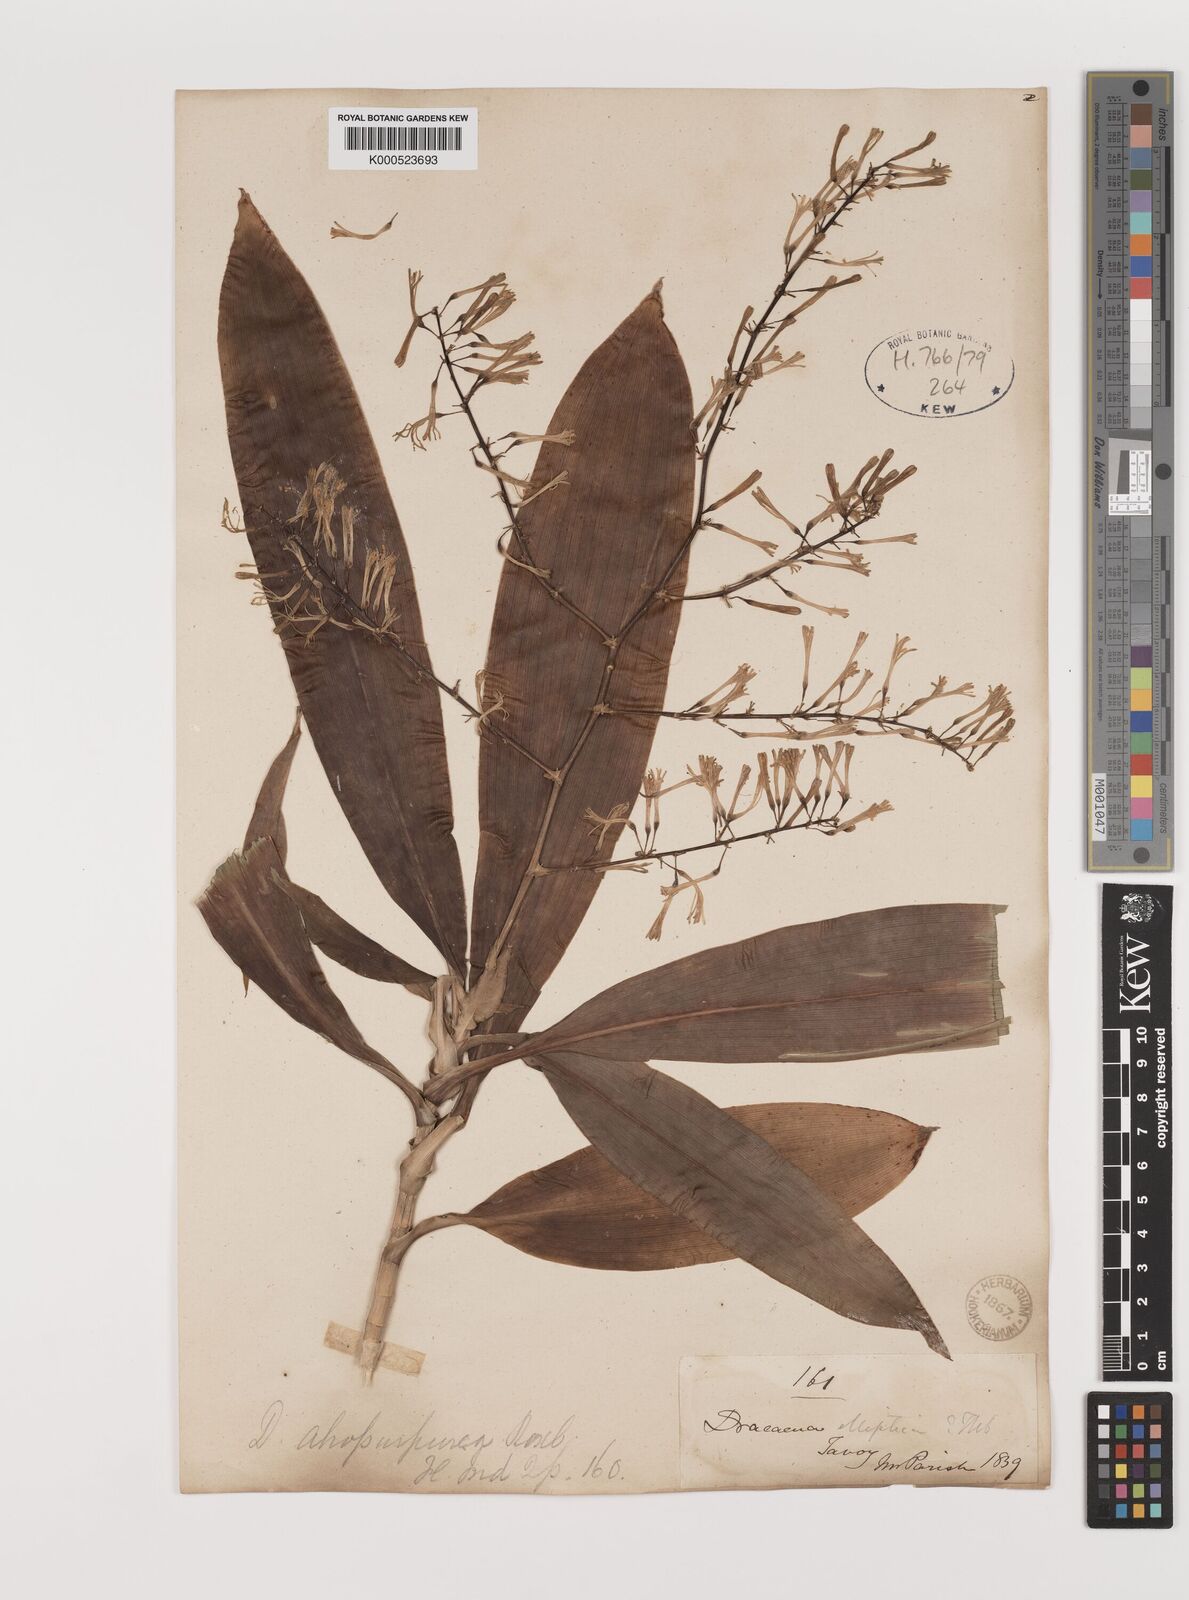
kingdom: Plantae
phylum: Tracheophyta
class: Liliopsida
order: Asparagales
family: Asparagaceae
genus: Dracaena
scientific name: Dracaena elliptica
